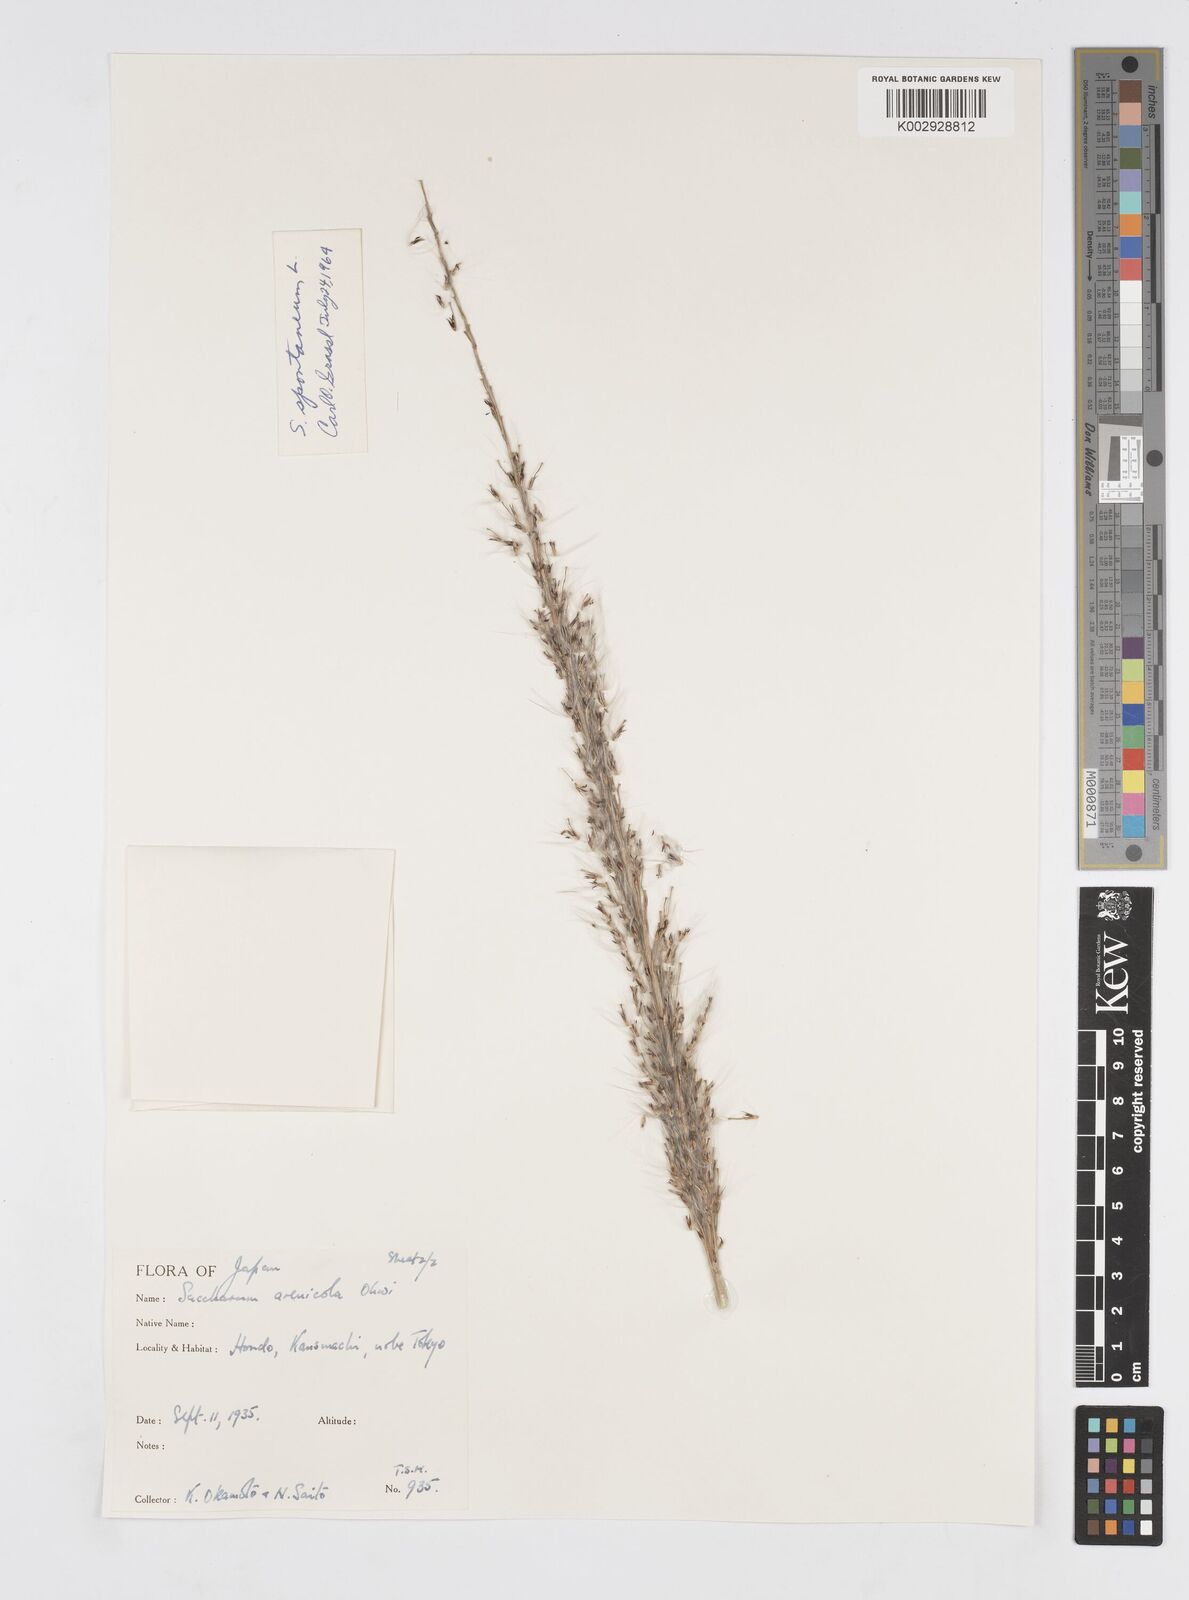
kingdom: Plantae
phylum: Tracheophyta
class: Liliopsida
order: Poales
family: Poaceae
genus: Saccharum
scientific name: Saccharum spontaneum
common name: Wild sugarcane
